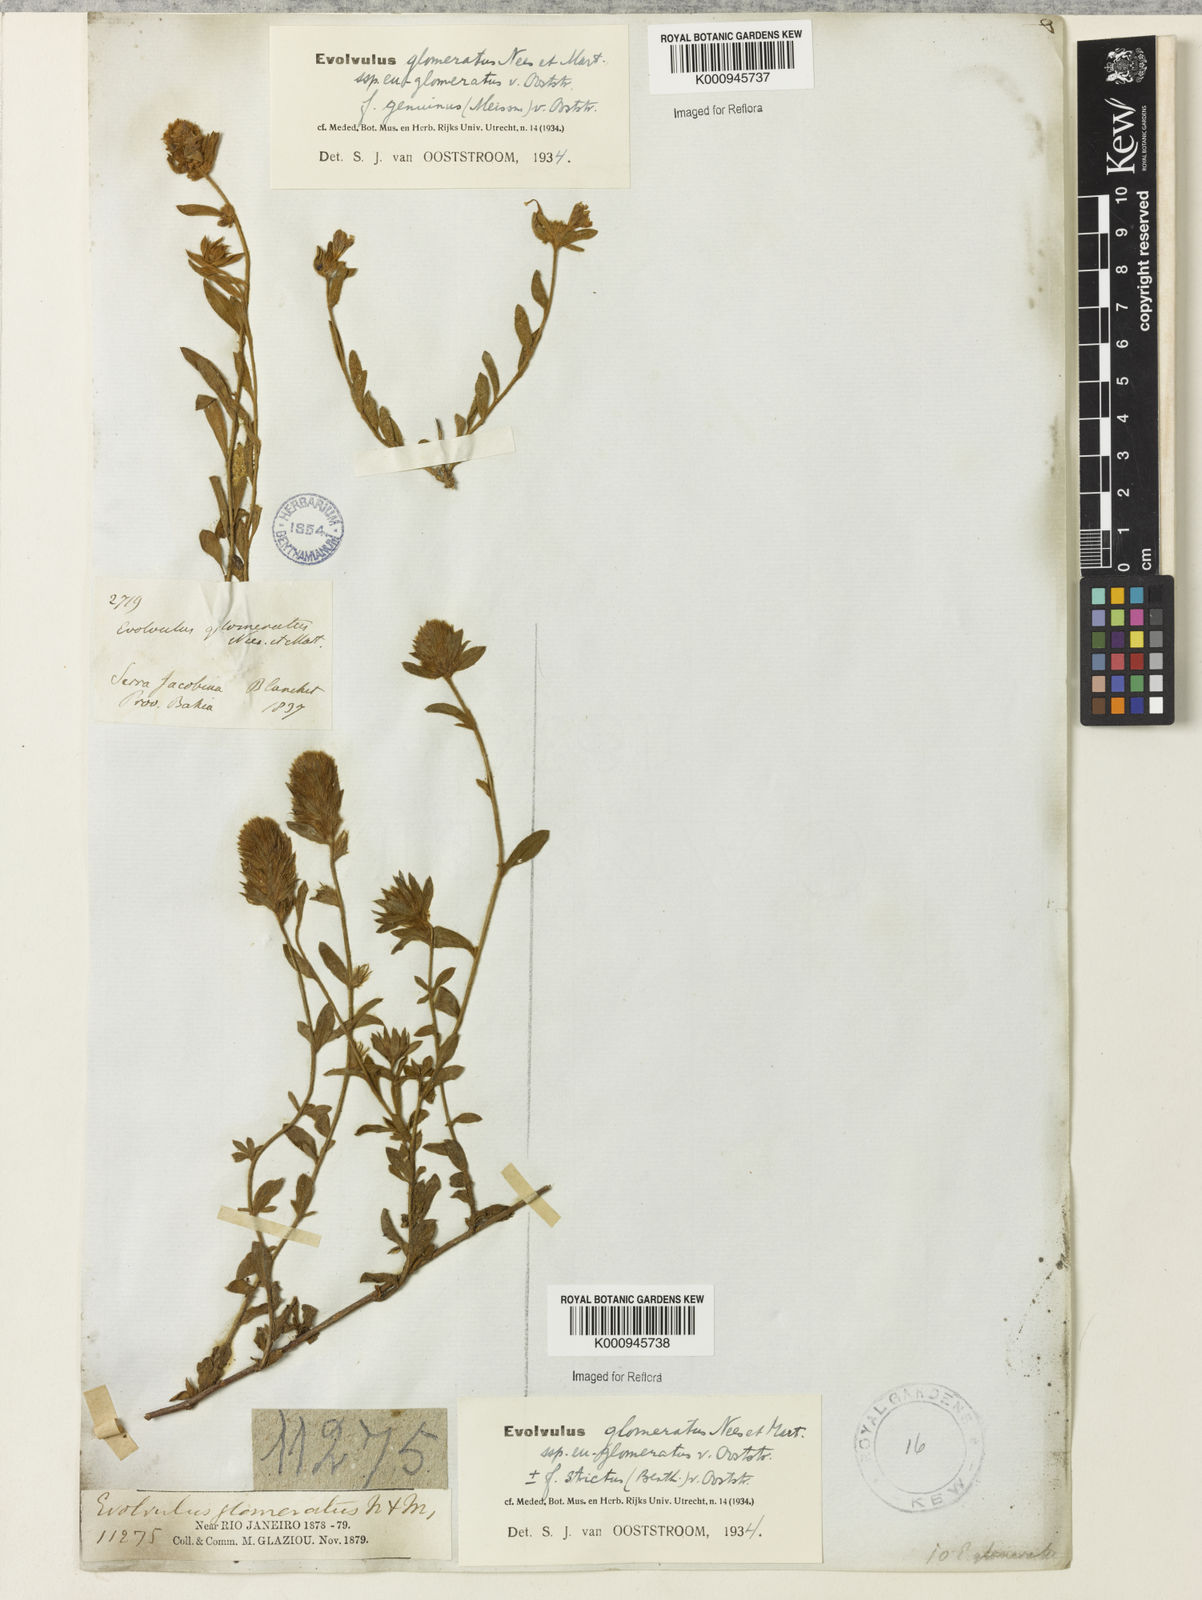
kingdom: Plantae
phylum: Tracheophyta
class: Magnoliopsida
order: Solanales
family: Convolvulaceae
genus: Evolvulus
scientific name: Evolvulus glomeratus
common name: Brazilian dwarf morning-glory
